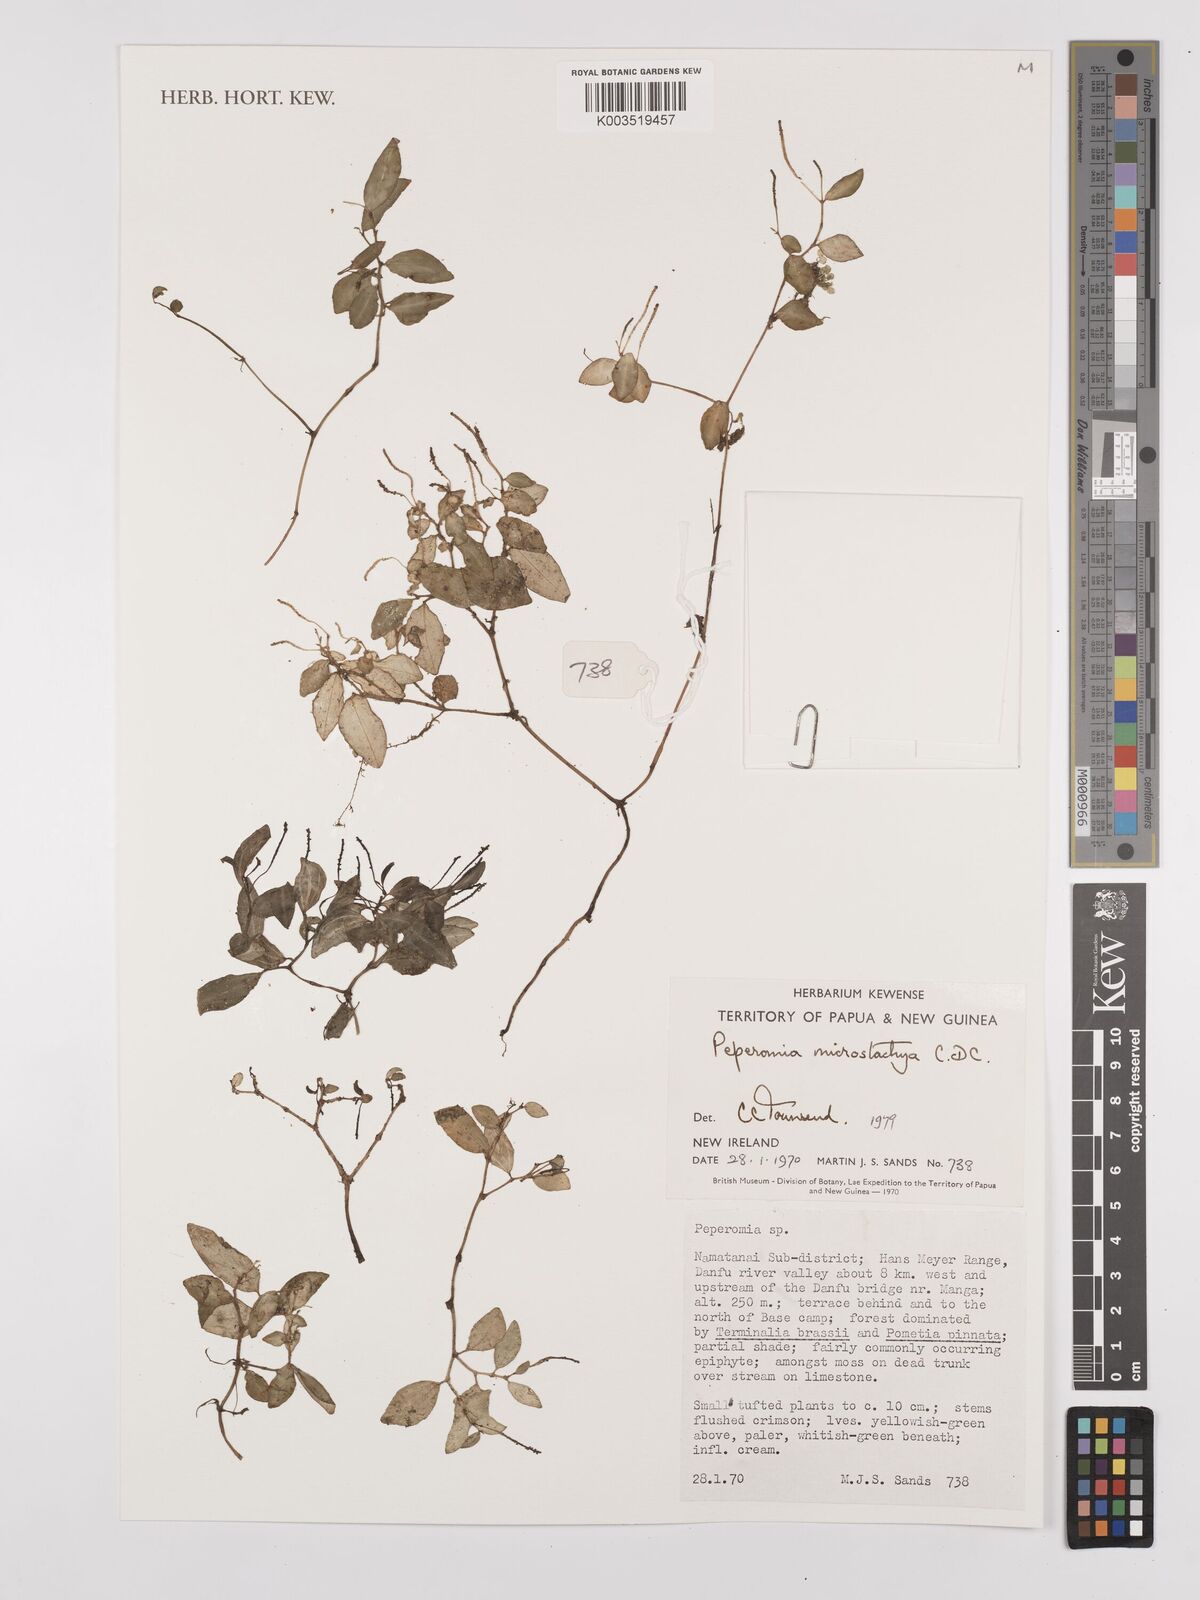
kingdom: Plantae
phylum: Tracheophyta
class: Magnoliopsida
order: Piperales
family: Piperaceae
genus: Peperomia
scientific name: Peperomia microstachya
